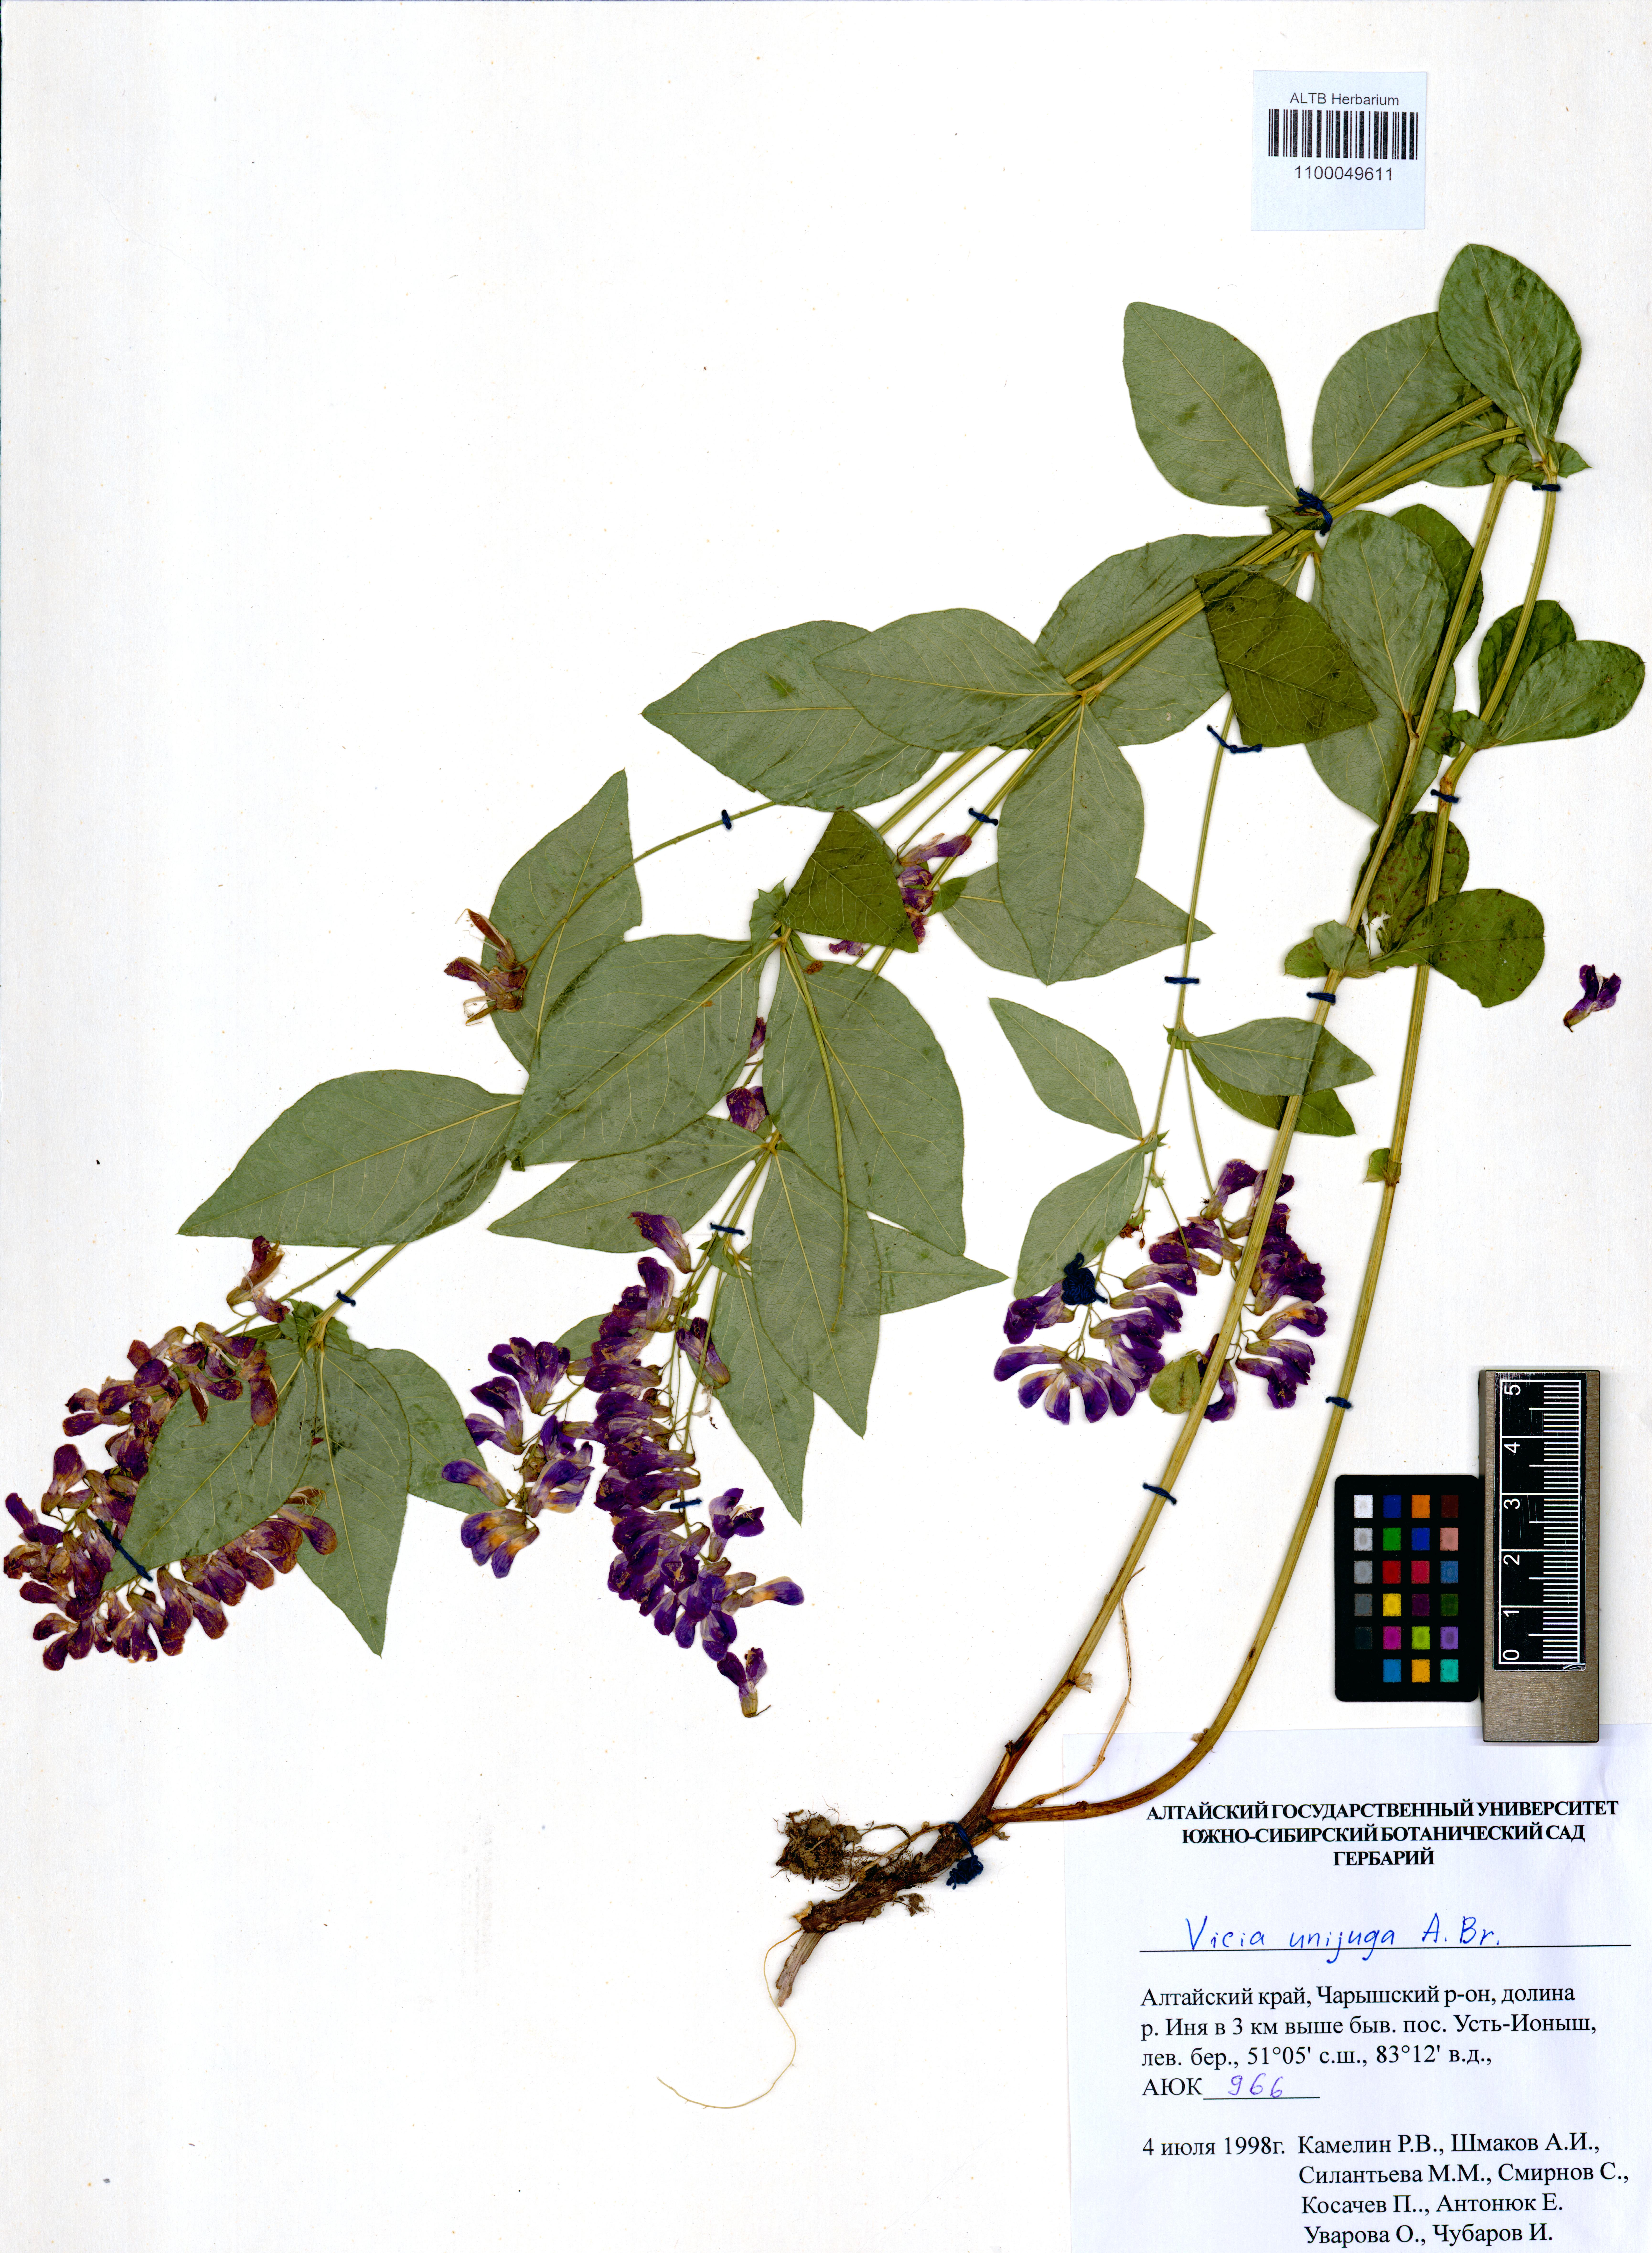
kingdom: Plantae
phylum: Tracheophyta
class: Magnoliopsida
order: Fabales
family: Fabaceae
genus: Vicia
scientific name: Vicia unijuga
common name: Two-leaf vetch
